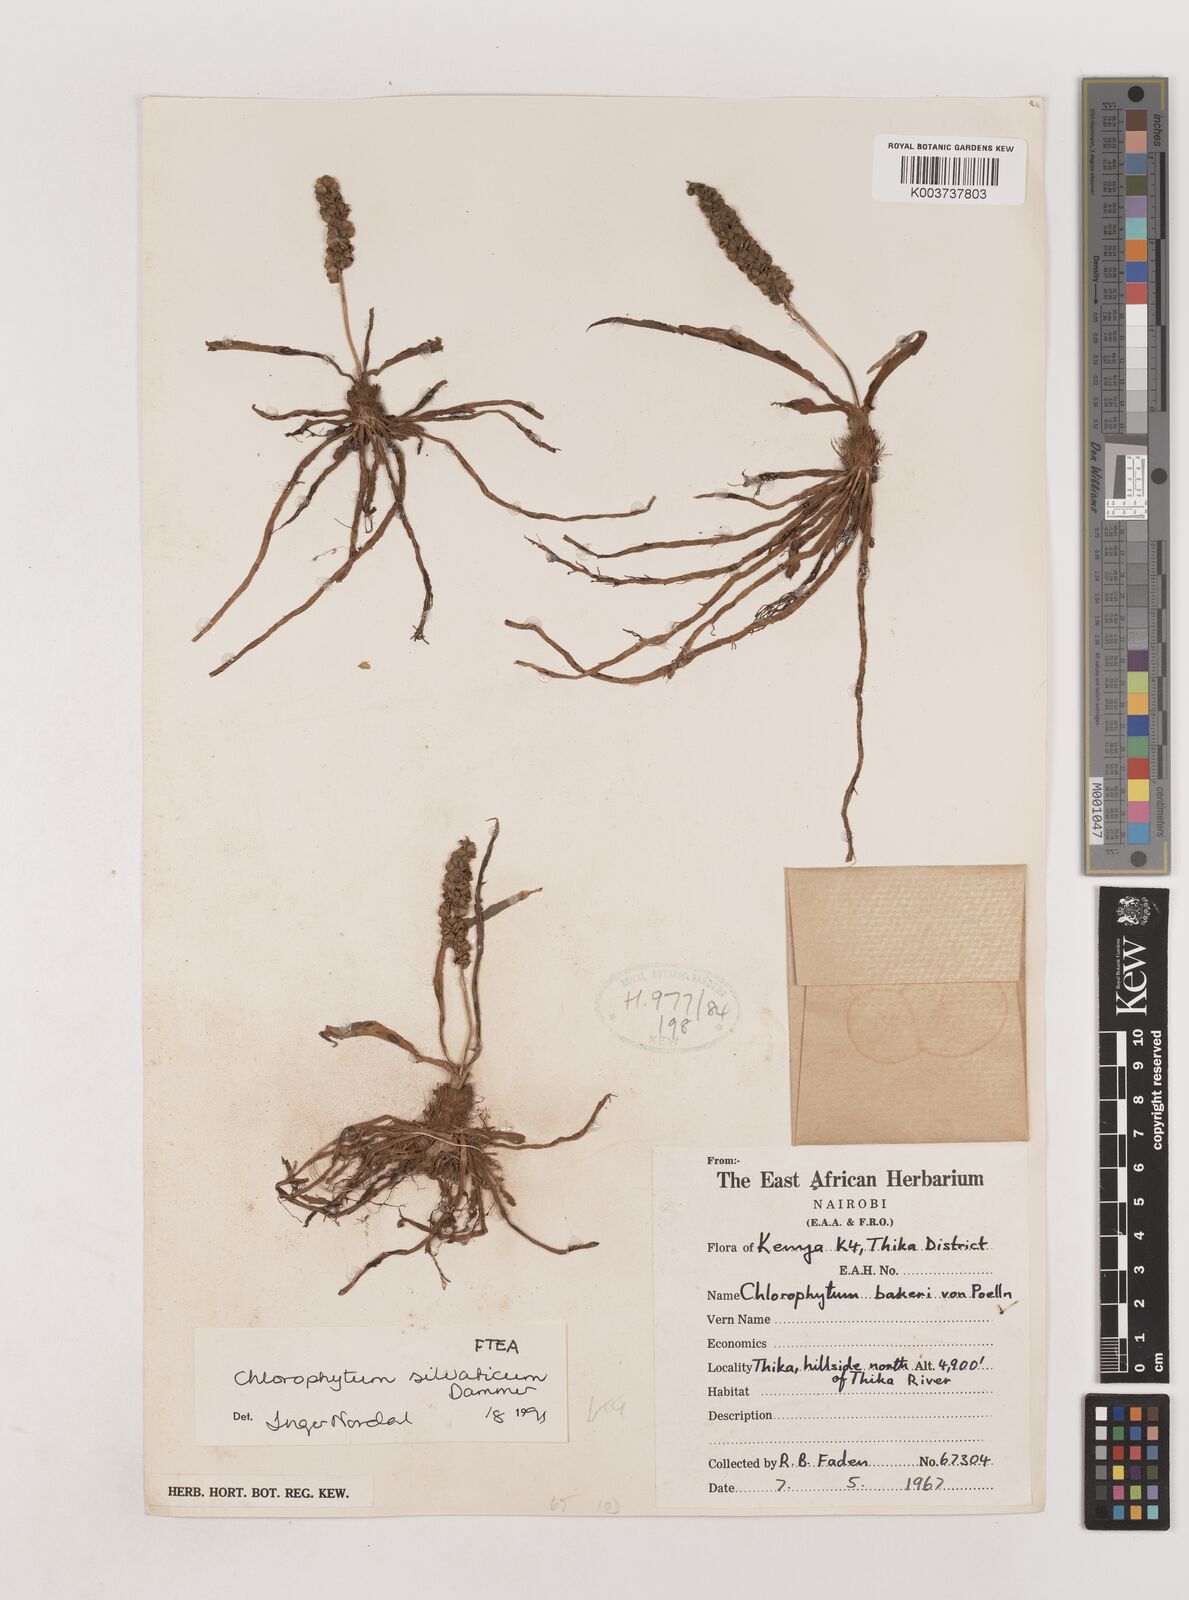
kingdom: Plantae
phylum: Tracheophyta
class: Liliopsida
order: Asparagales
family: Asparagaceae
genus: Chlorophytum
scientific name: Chlorophytum africanum
